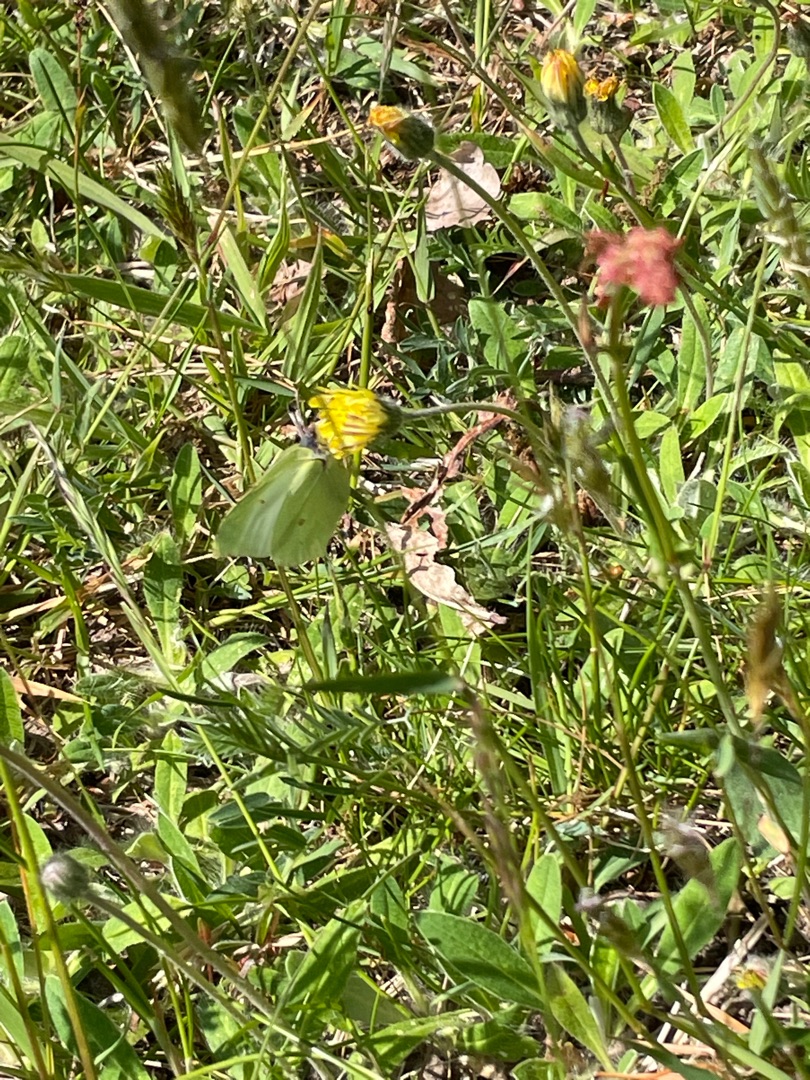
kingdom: Animalia
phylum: Arthropoda
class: Insecta
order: Lepidoptera
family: Pieridae
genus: Gonepteryx
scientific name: Gonepteryx rhamni
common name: Citronsommerfugl
